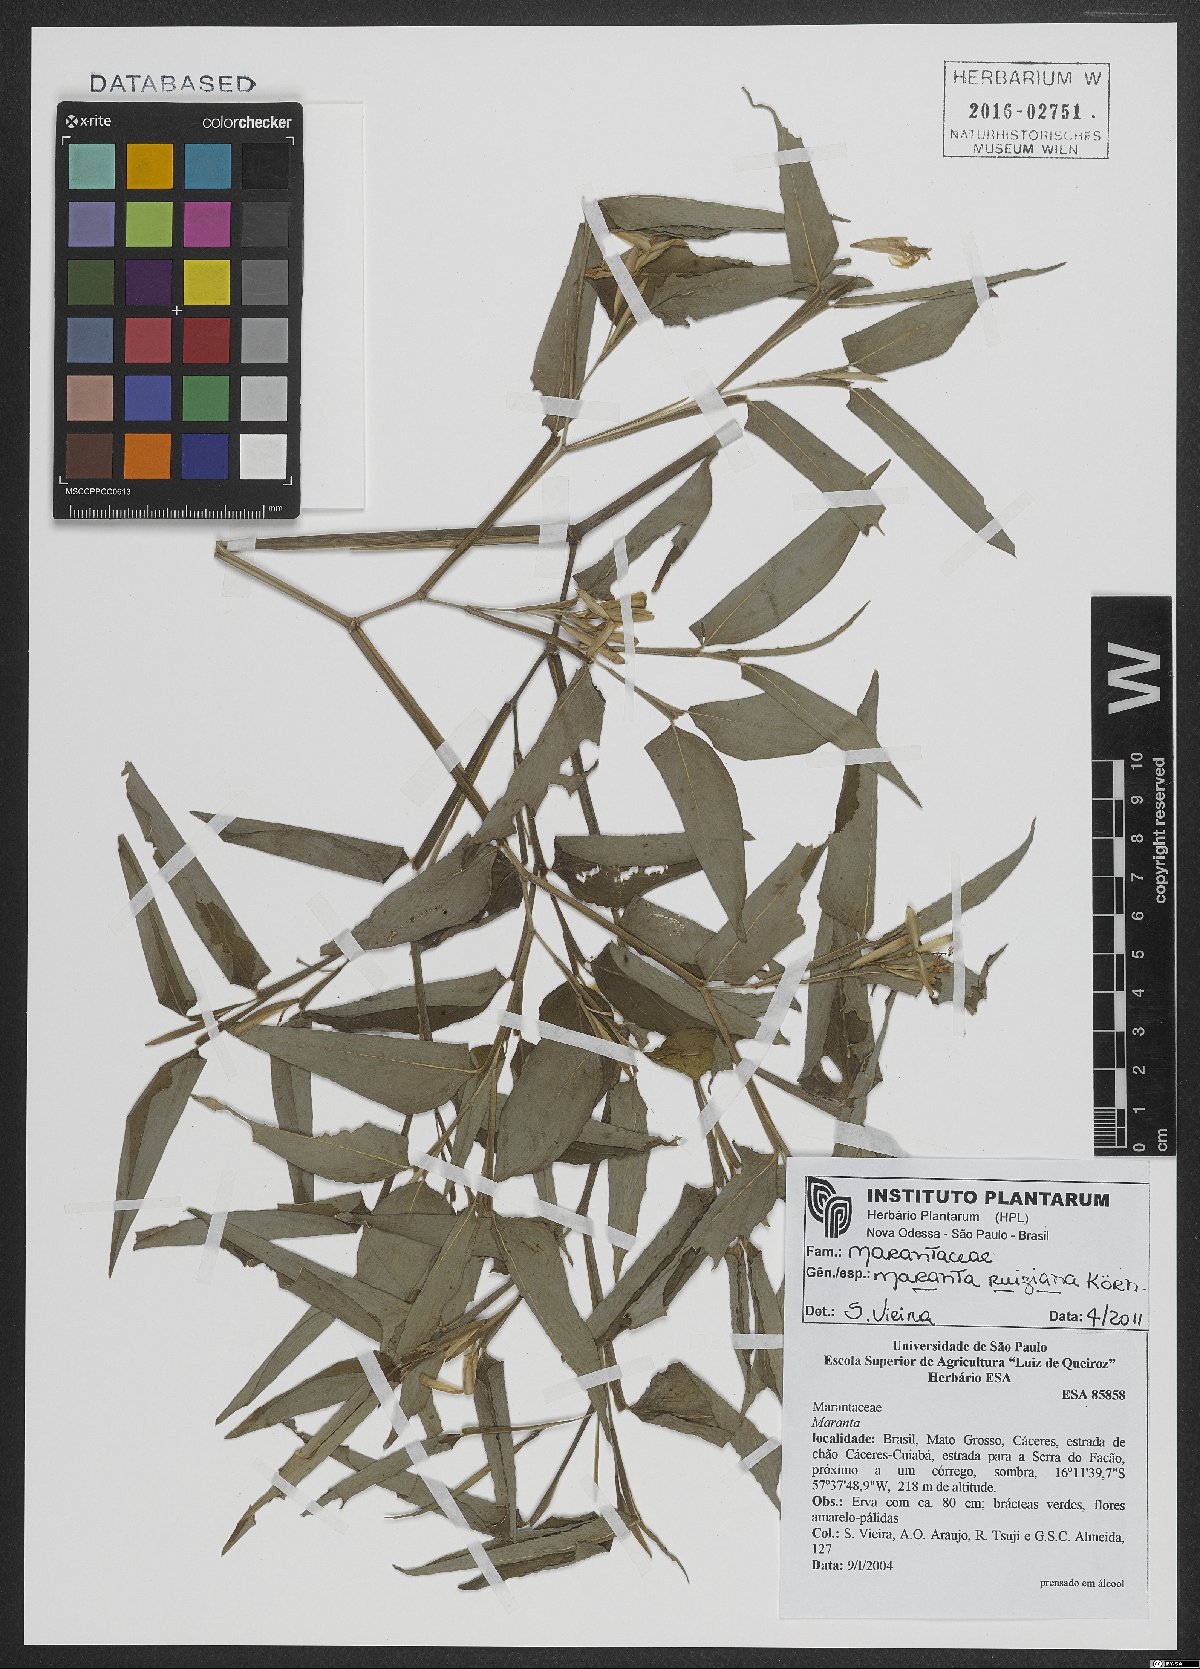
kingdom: Plantae
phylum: Tracheophyta
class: Liliopsida
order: Zingiberales
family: Marantaceae
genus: Maranta
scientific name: Maranta ruiziana
